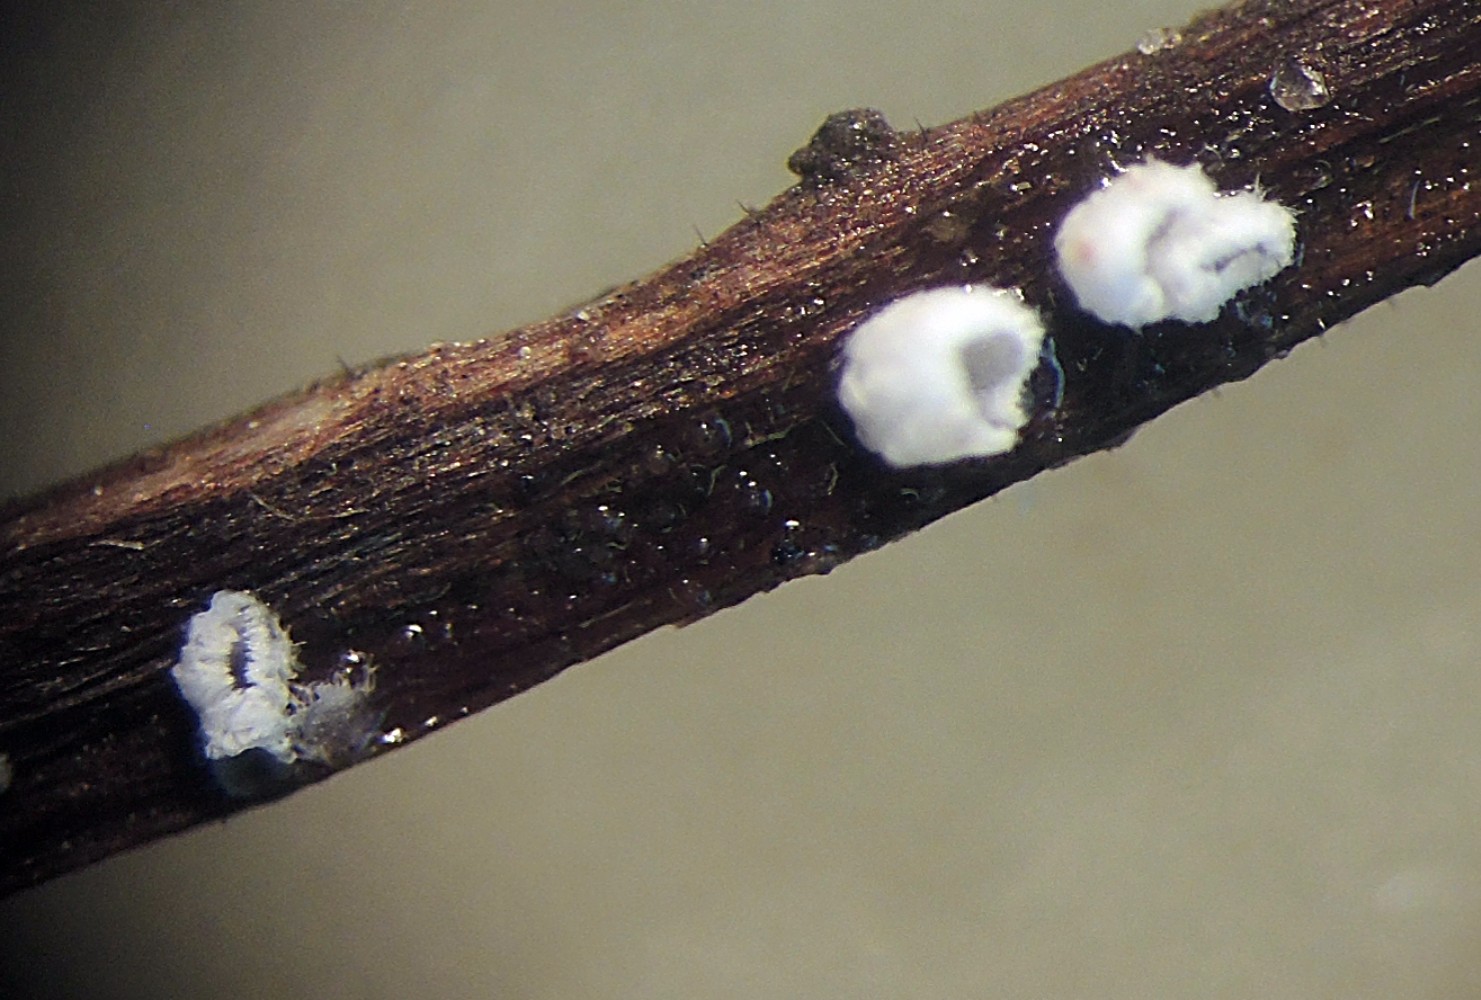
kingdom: Fungi
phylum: Basidiomycota
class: Agaricomycetes
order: Agaricales
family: Niaceae
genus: Flagelloscypha
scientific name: Flagelloscypha minutissima
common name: lille hængeskål
